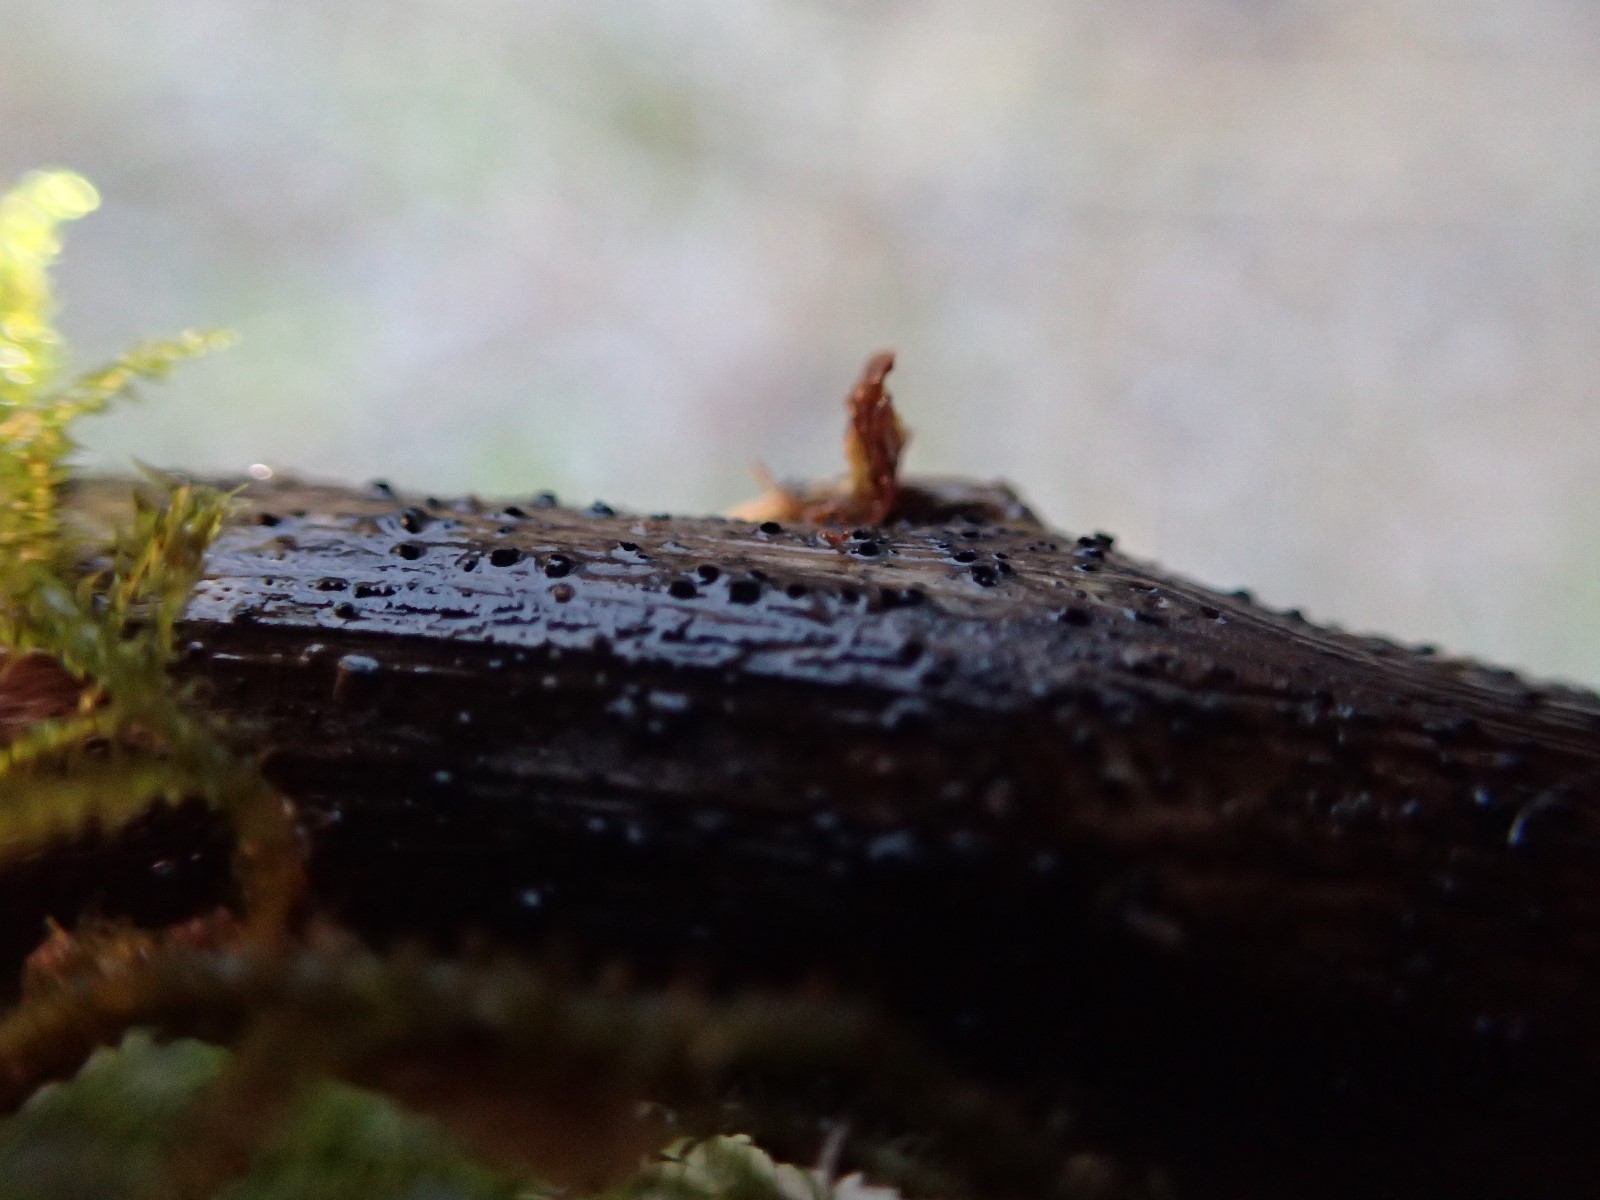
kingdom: Fungi
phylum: Ascomycota
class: Dothideomycetes
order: Pleosporales
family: Lophiostomataceae
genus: Lophiostoma
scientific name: Lophiostoma
